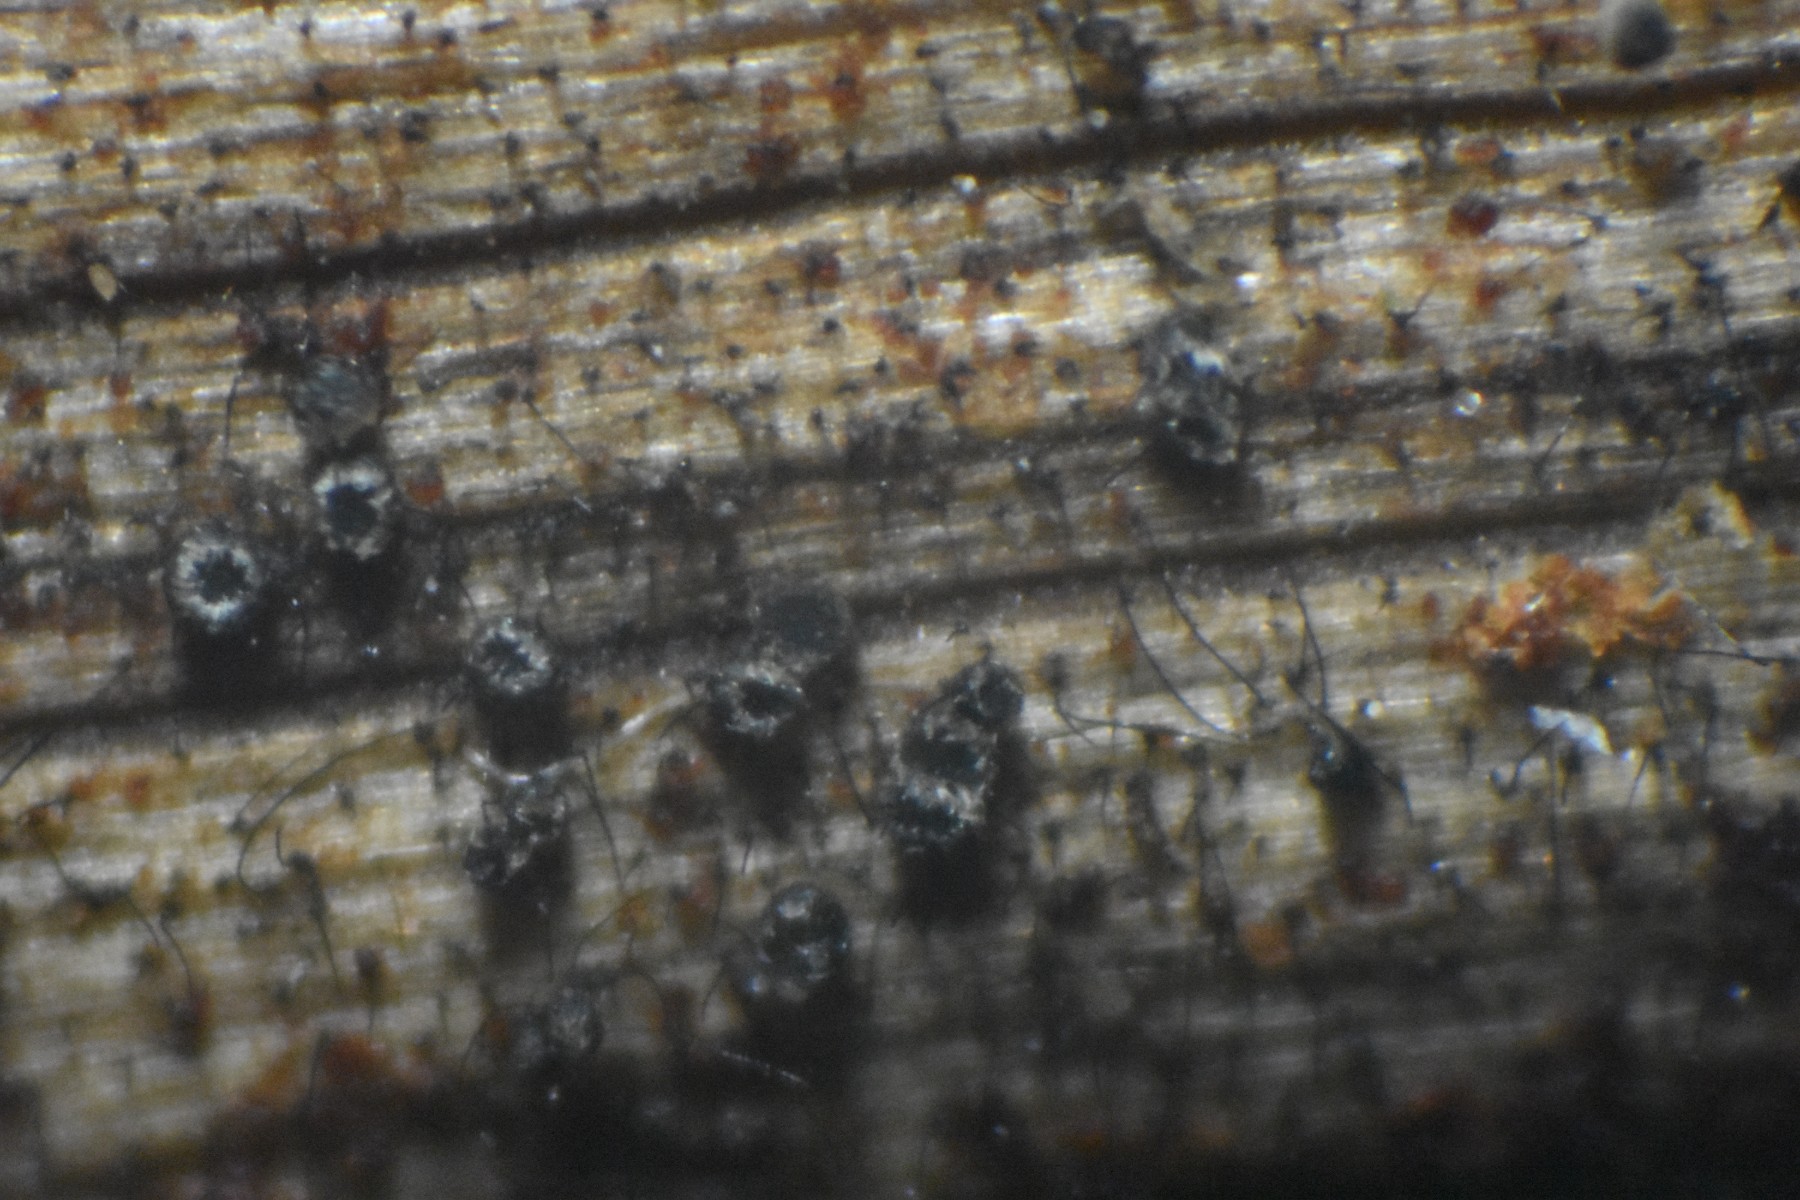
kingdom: Fungi
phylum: Ascomycota
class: Leotiomycetes
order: Helotiales
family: Hyaloscyphaceae
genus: Dematioscypha
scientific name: Dematioscypha dematiicola
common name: grålig skimmelskive
